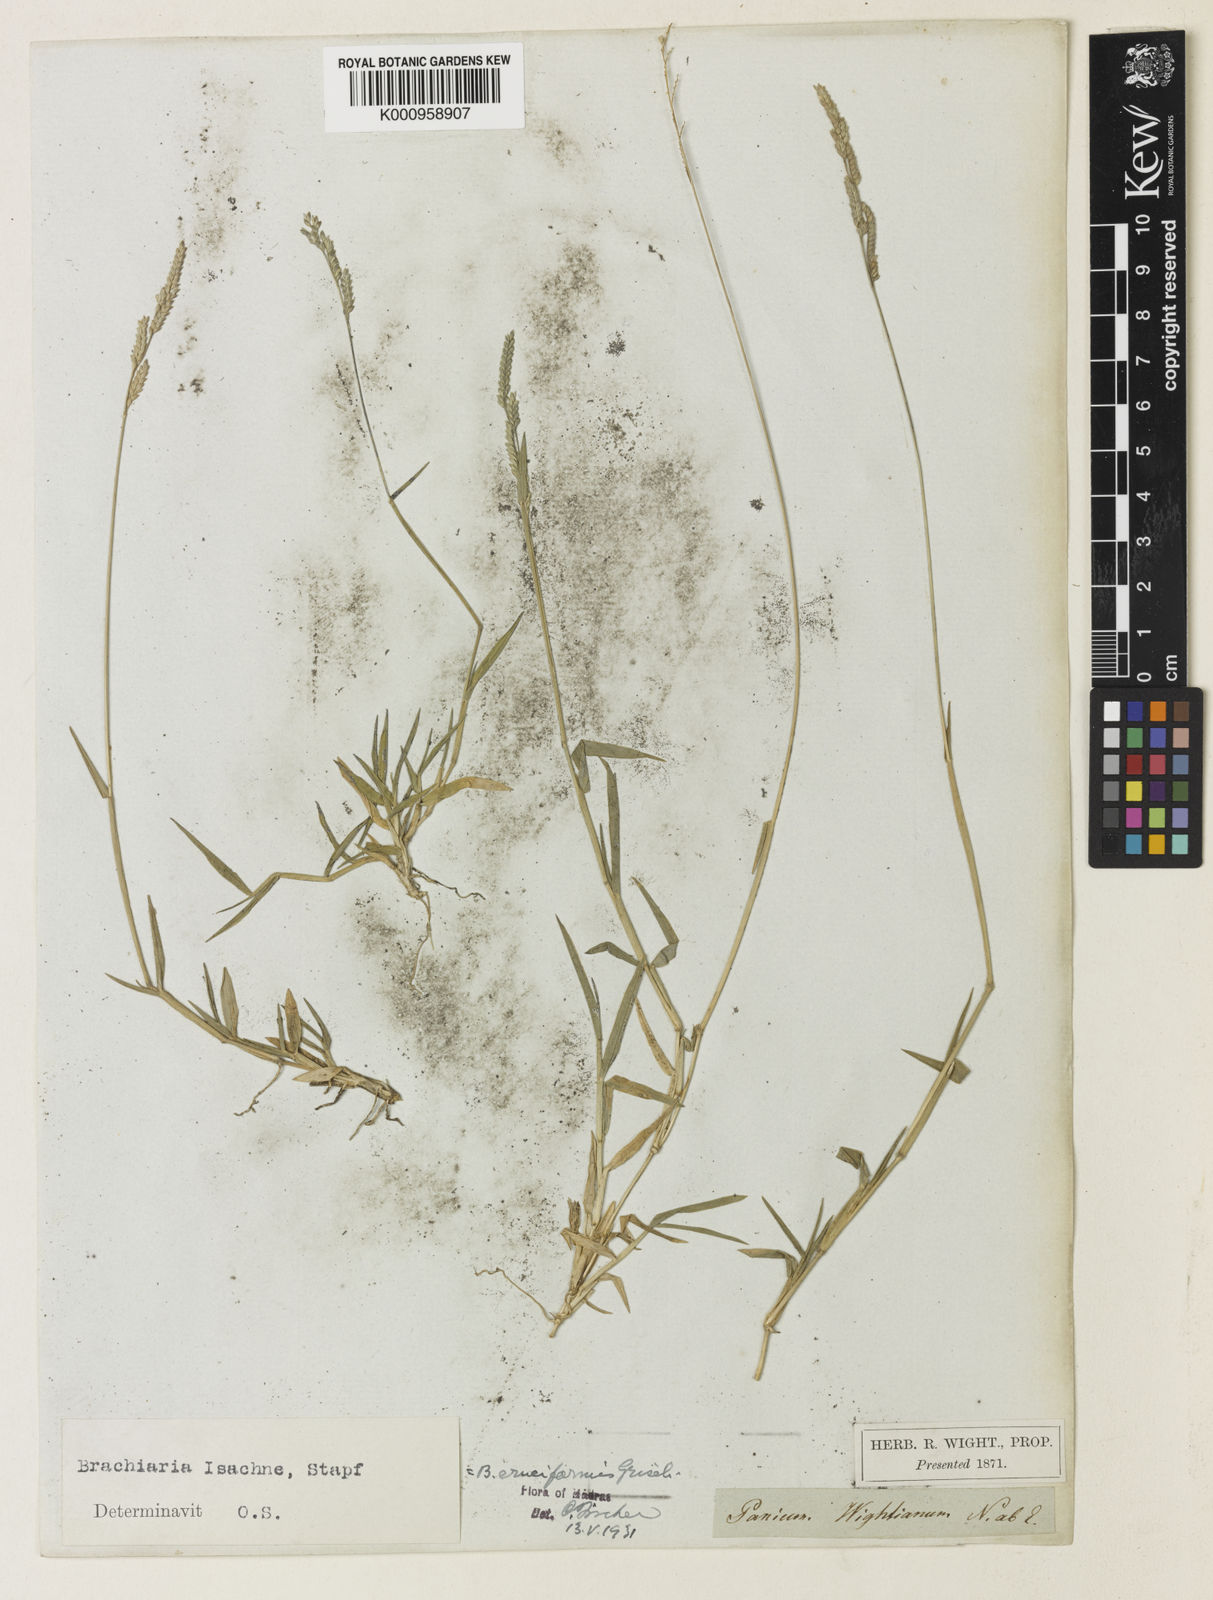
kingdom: Plantae
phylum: Tracheophyta
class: Liliopsida
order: Poales
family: Poaceae
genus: Moorochloa
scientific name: Moorochloa eruciformis
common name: Sweet signalgrass
